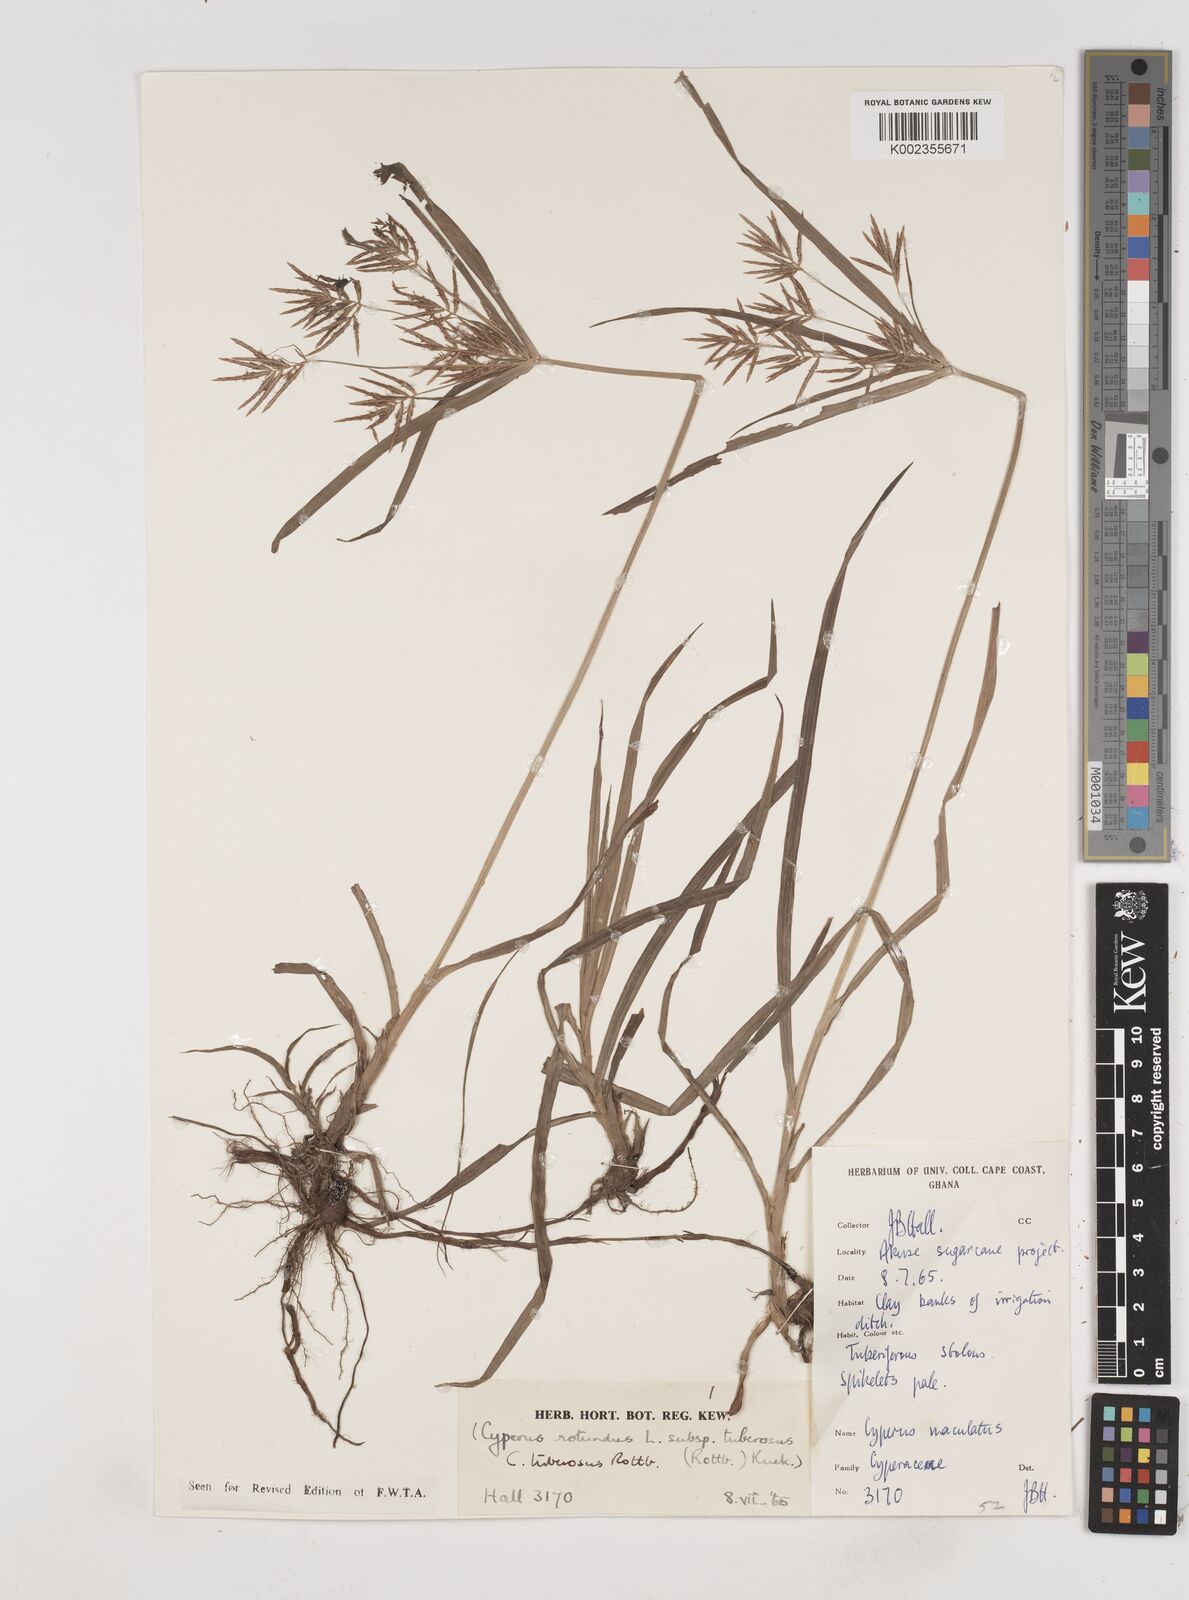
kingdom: Plantae
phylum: Tracheophyta
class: Liliopsida
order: Poales
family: Cyperaceae
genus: Cyperus
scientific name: Cyperus tuberosus
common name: Nut grass
